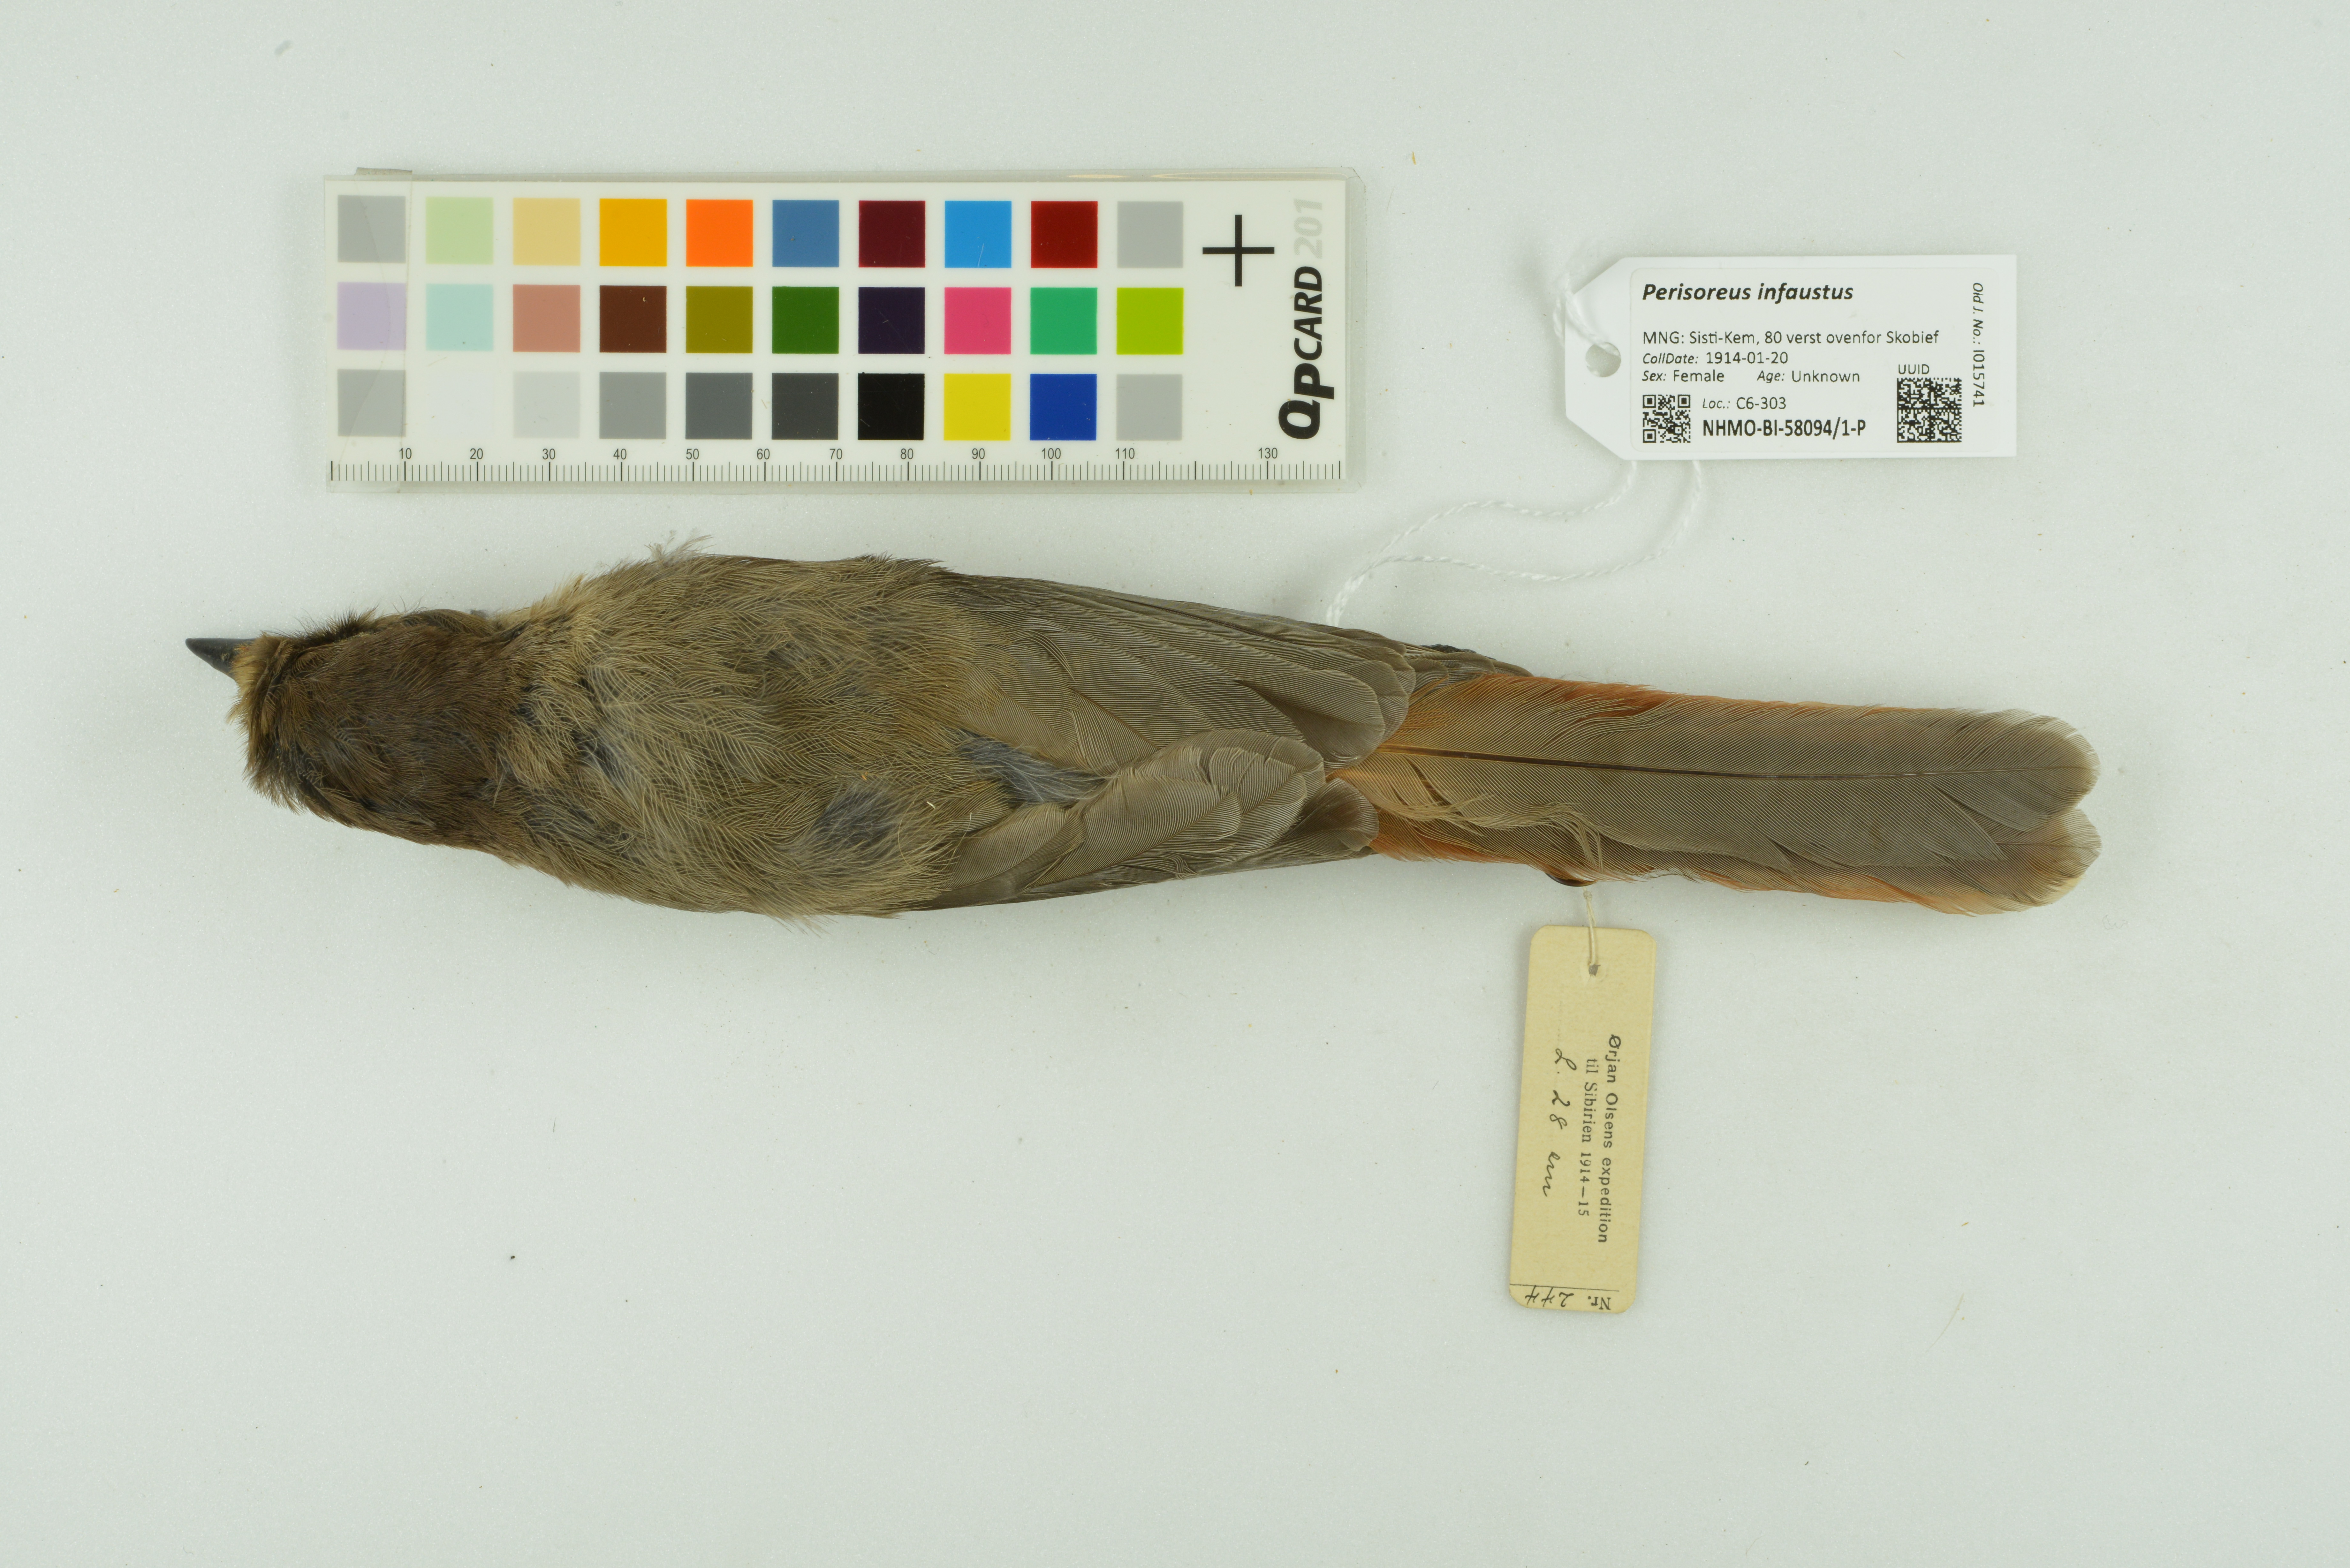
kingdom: Animalia
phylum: Chordata
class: Aves
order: Passeriformes
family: Corvidae
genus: Perisoreus
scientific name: Perisoreus infaustus
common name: Siberian jay
